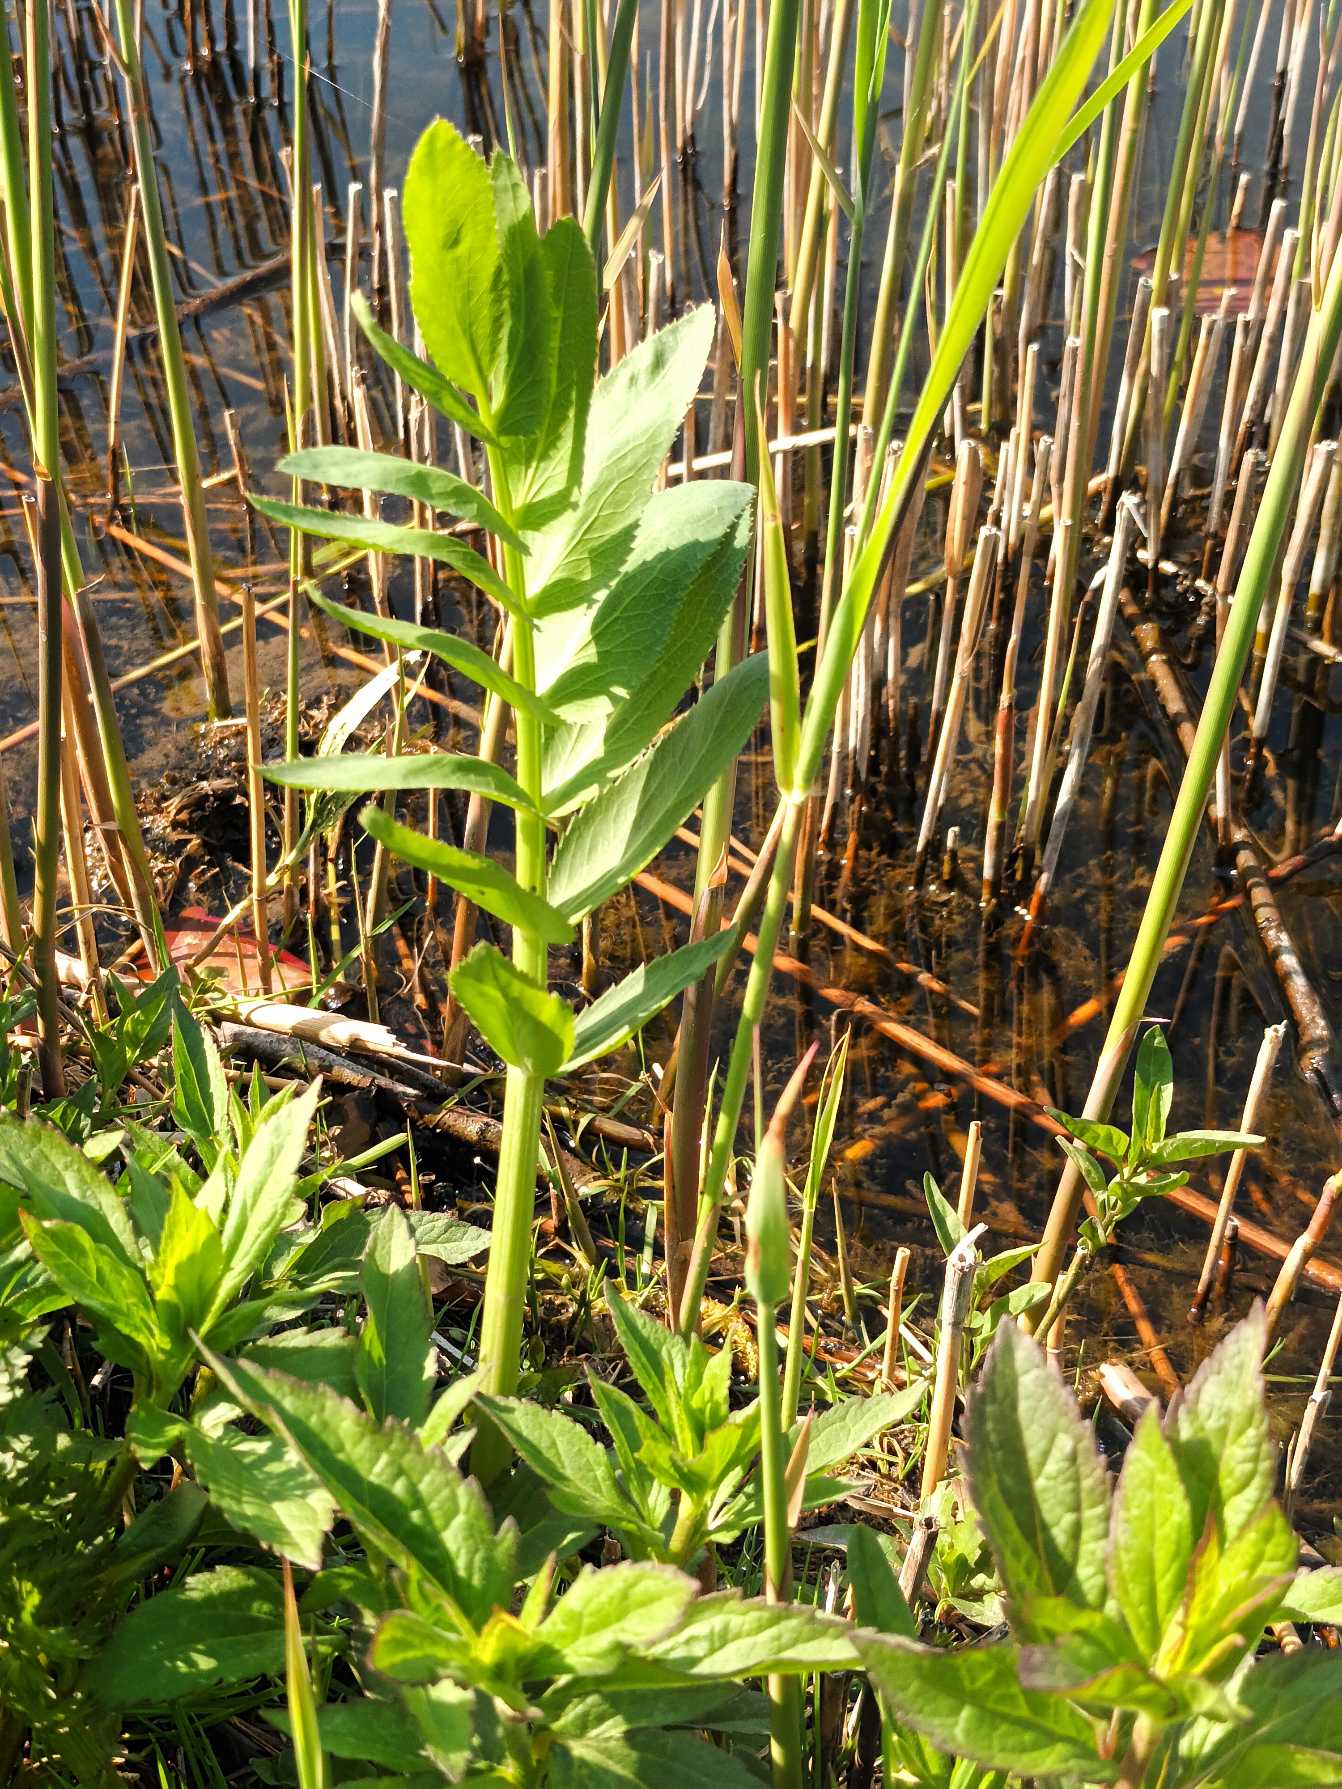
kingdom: Plantae
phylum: Tracheophyta
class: Magnoliopsida
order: Apiales
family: Apiaceae
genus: Sium
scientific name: Sium latifolium
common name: Bredbladet mærke
